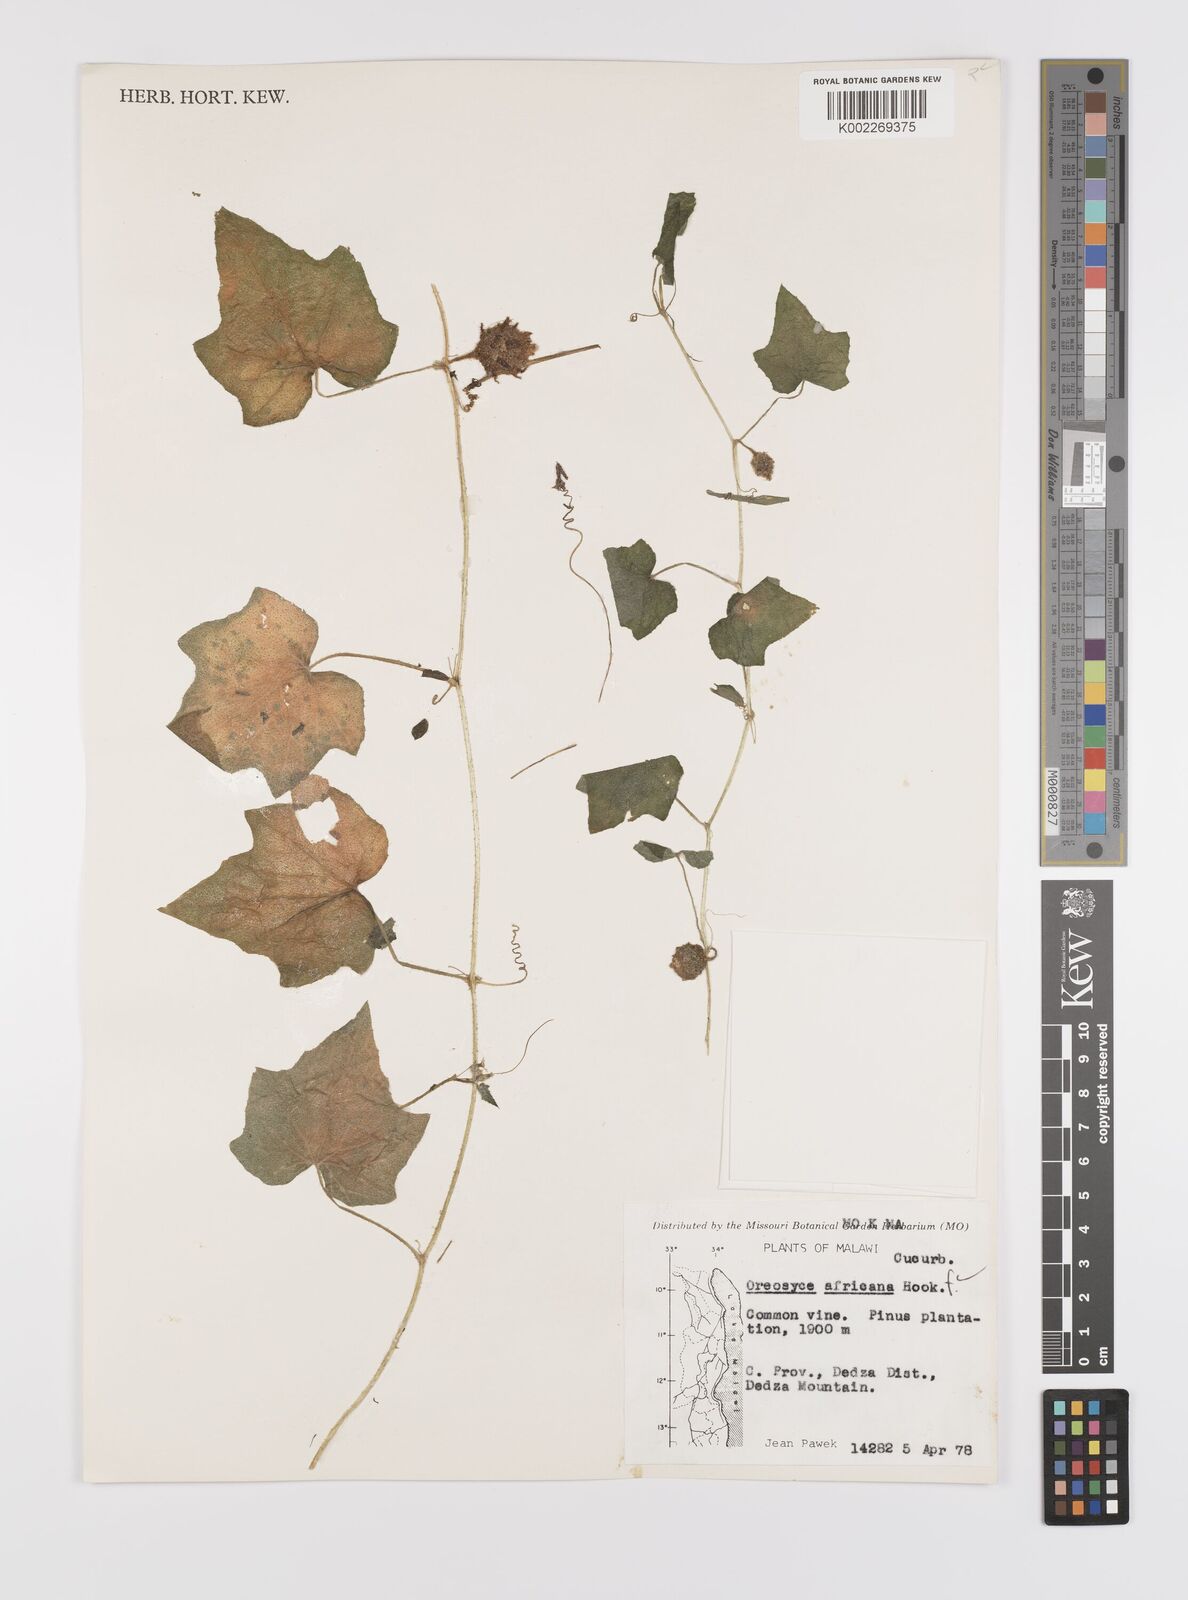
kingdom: Plantae
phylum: Tracheophyta
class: Magnoliopsida
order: Cucurbitales
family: Cucurbitaceae
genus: Cucumis
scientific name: Cucumis oreosyce
